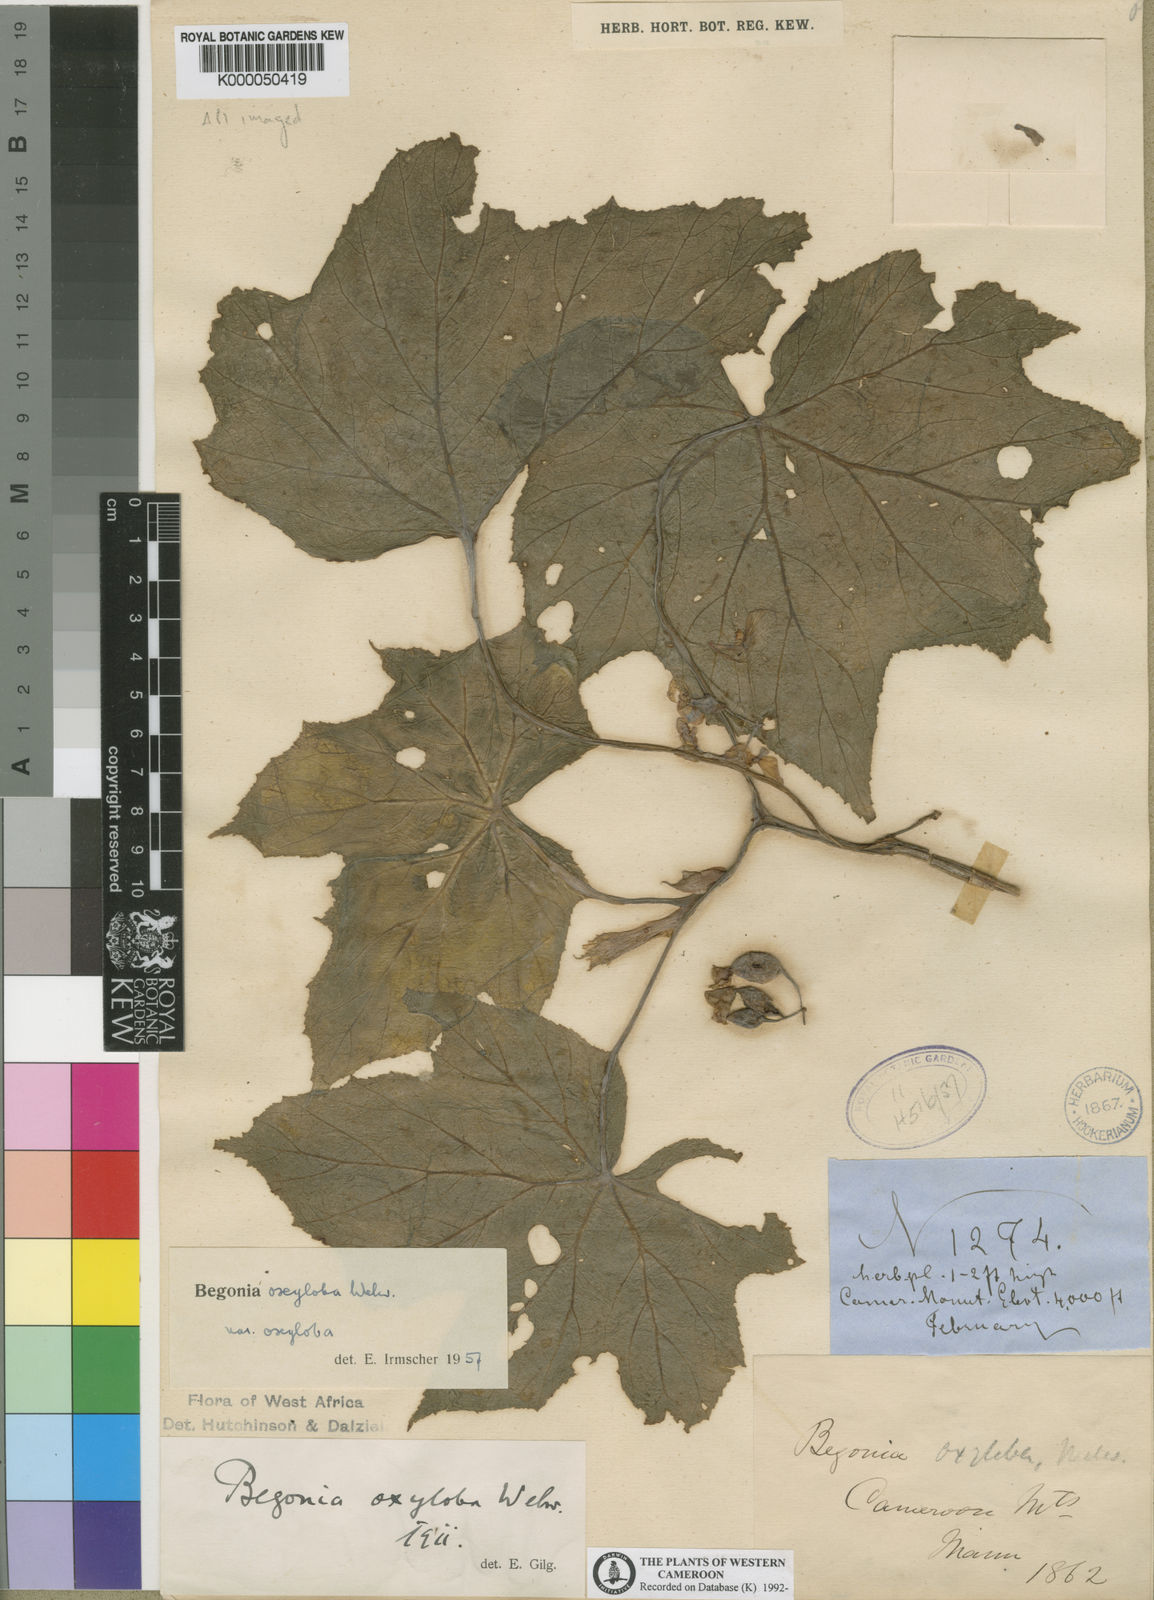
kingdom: Plantae
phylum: Tracheophyta
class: Magnoliopsida
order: Cucurbitales
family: Begoniaceae
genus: Begonia
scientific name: Begonia oxyloba
